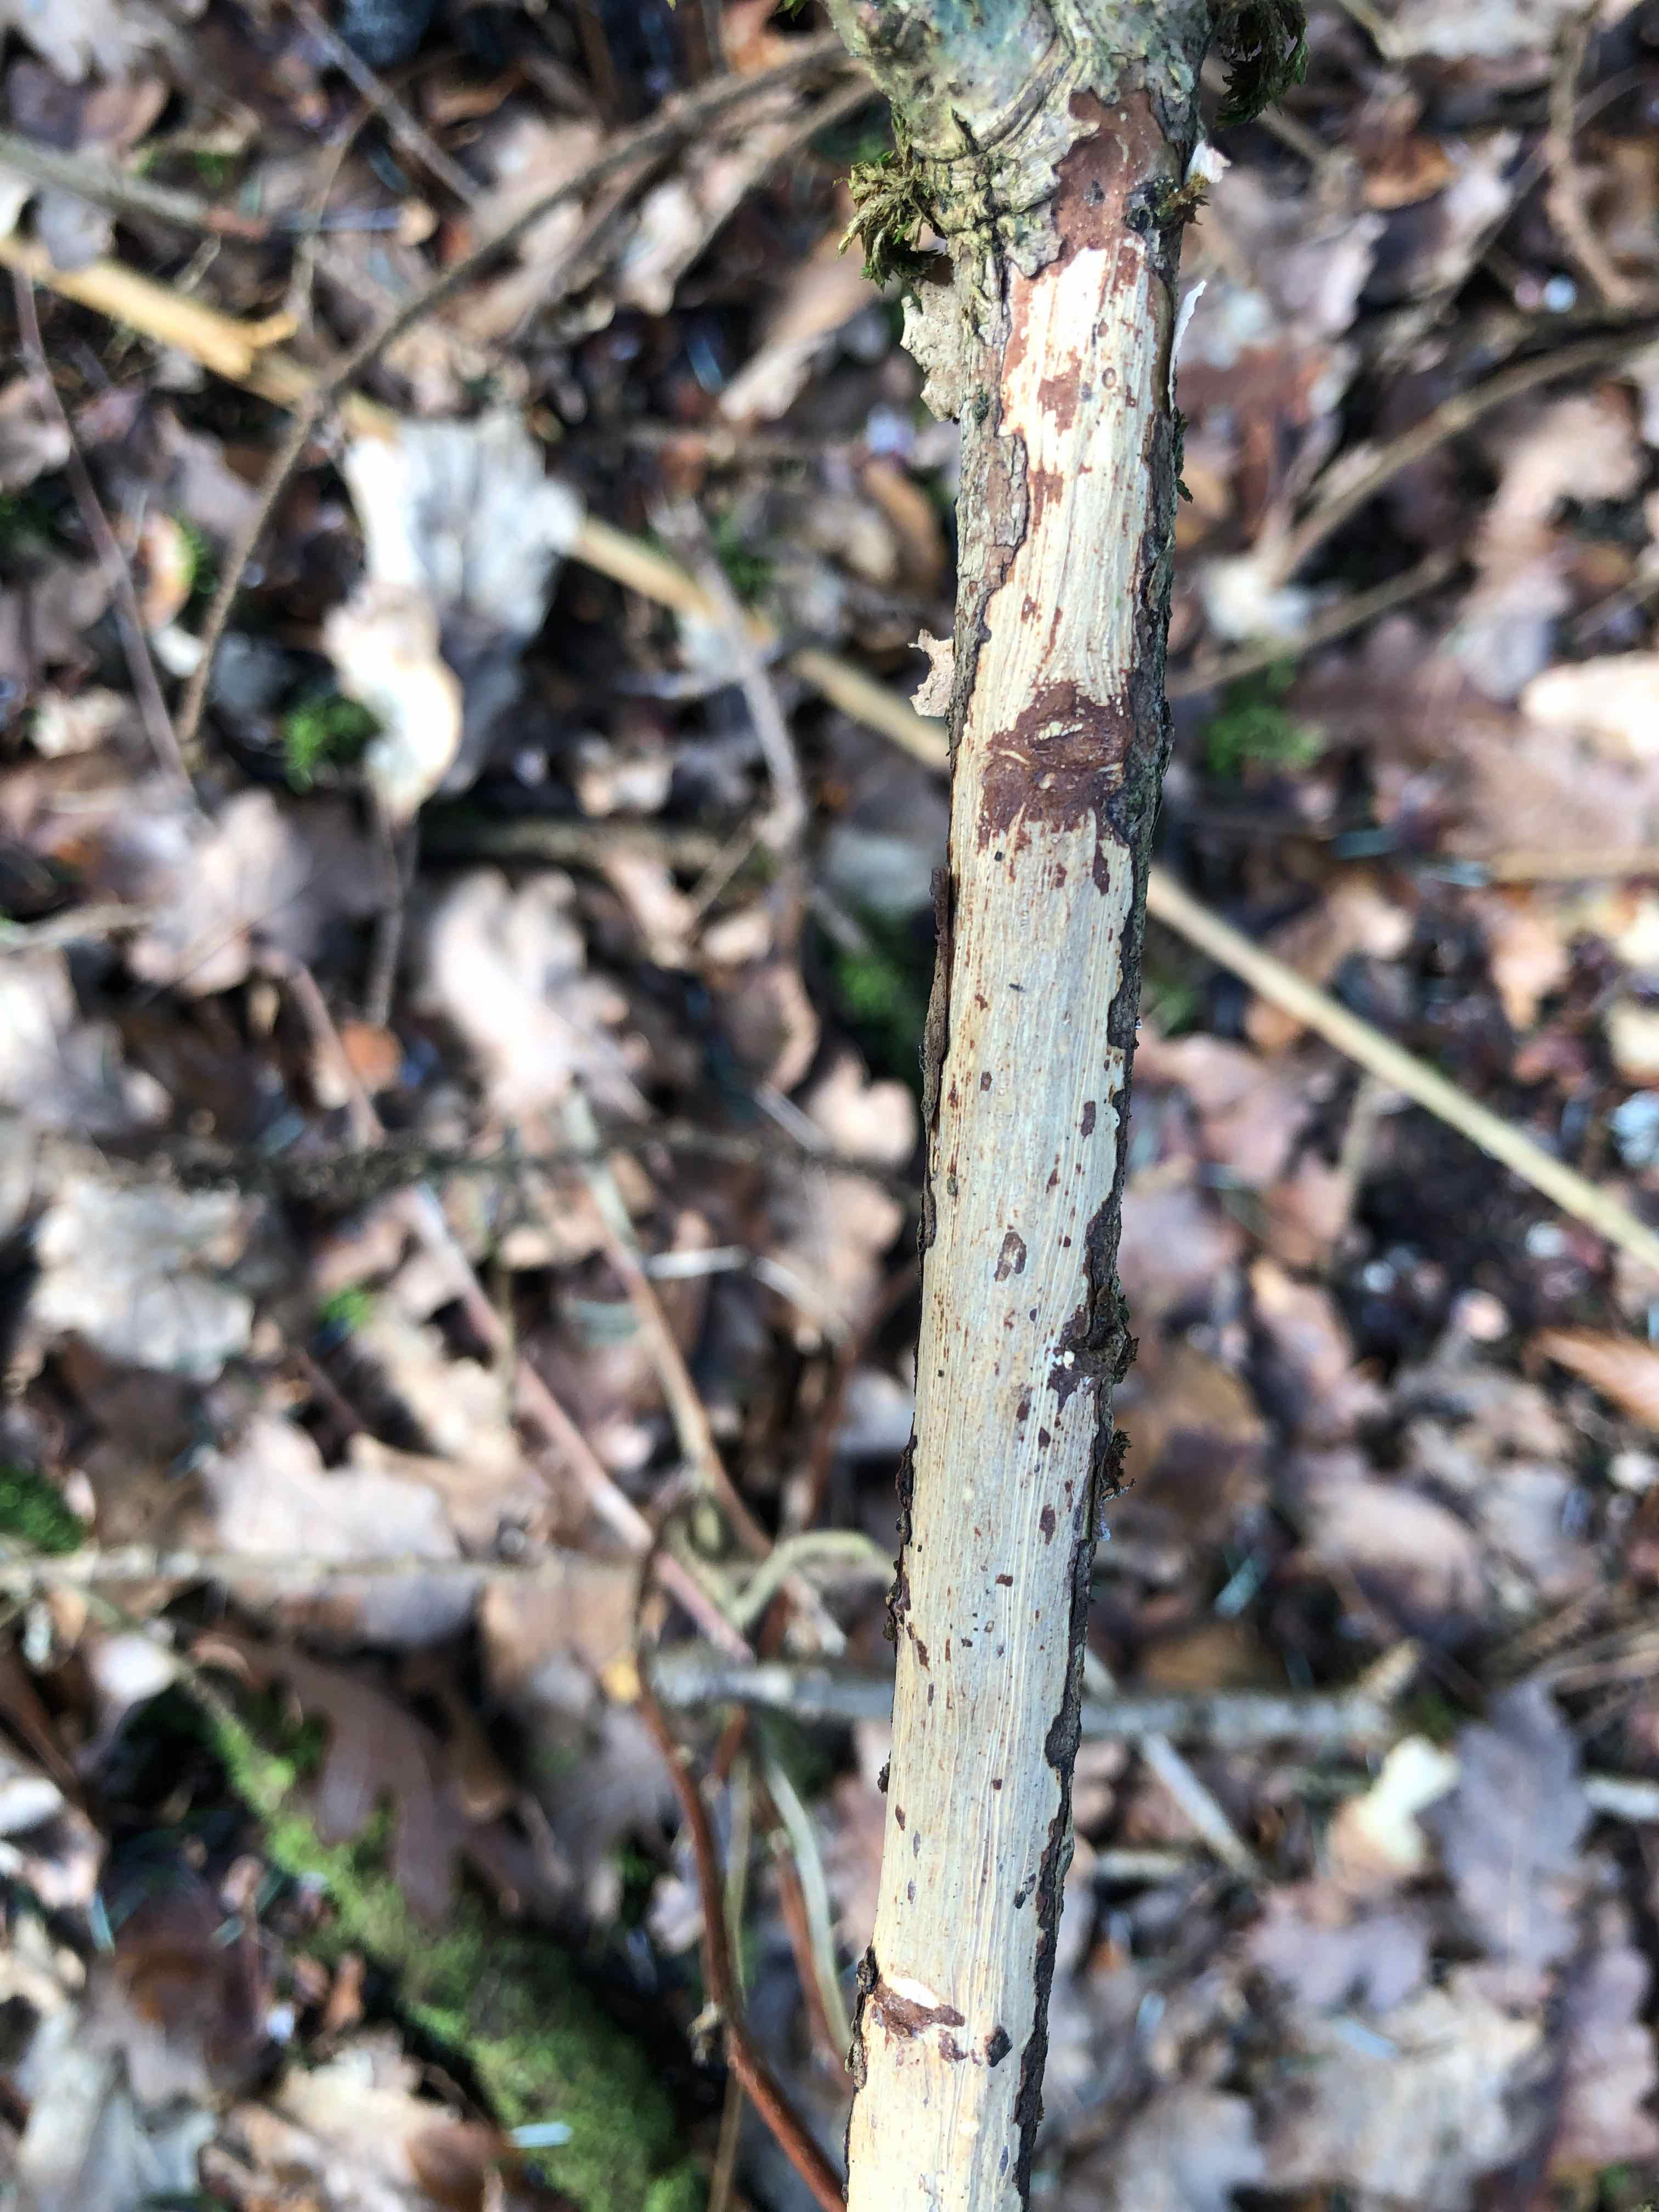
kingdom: Fungi
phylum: Basidiomycota
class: Agaricomycetes
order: Corticiales
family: Vuilleminiaceae
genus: Vuilleminia
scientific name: Vuilleminia comedens
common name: almindelig barksprænger
